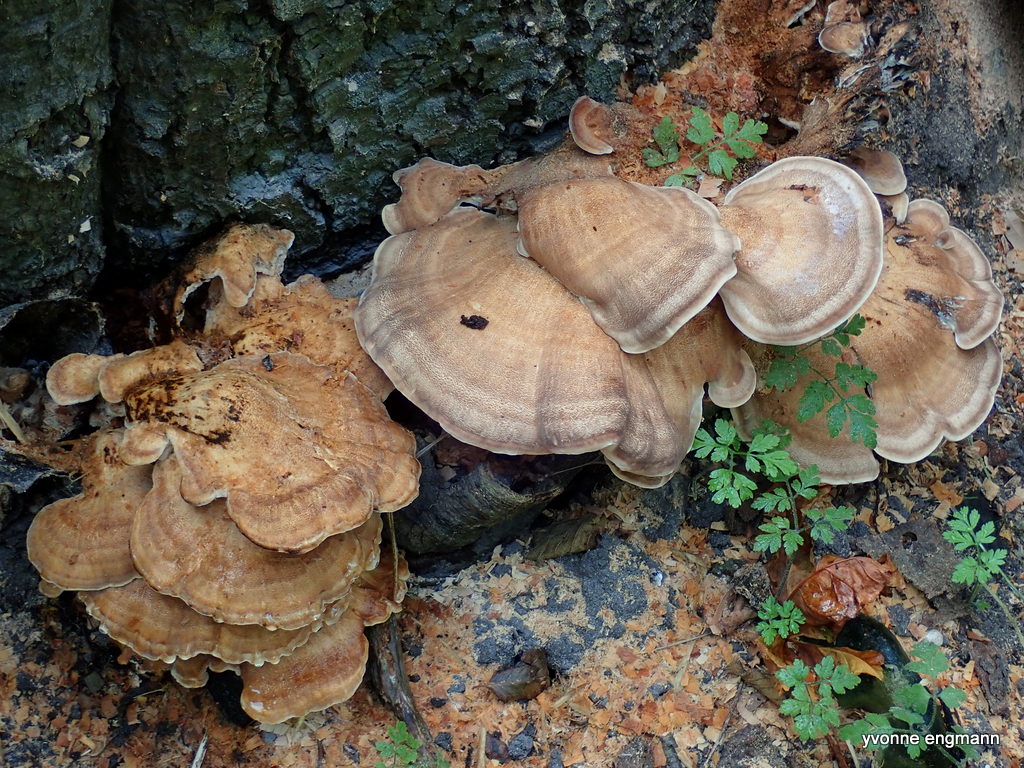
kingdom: Fungi
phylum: Basidiomycota
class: Agaricomycetes
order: Polyporales
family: Meripilaceae
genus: Meripilus
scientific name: Meripilus giganteus
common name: kæmpeporesvamp
